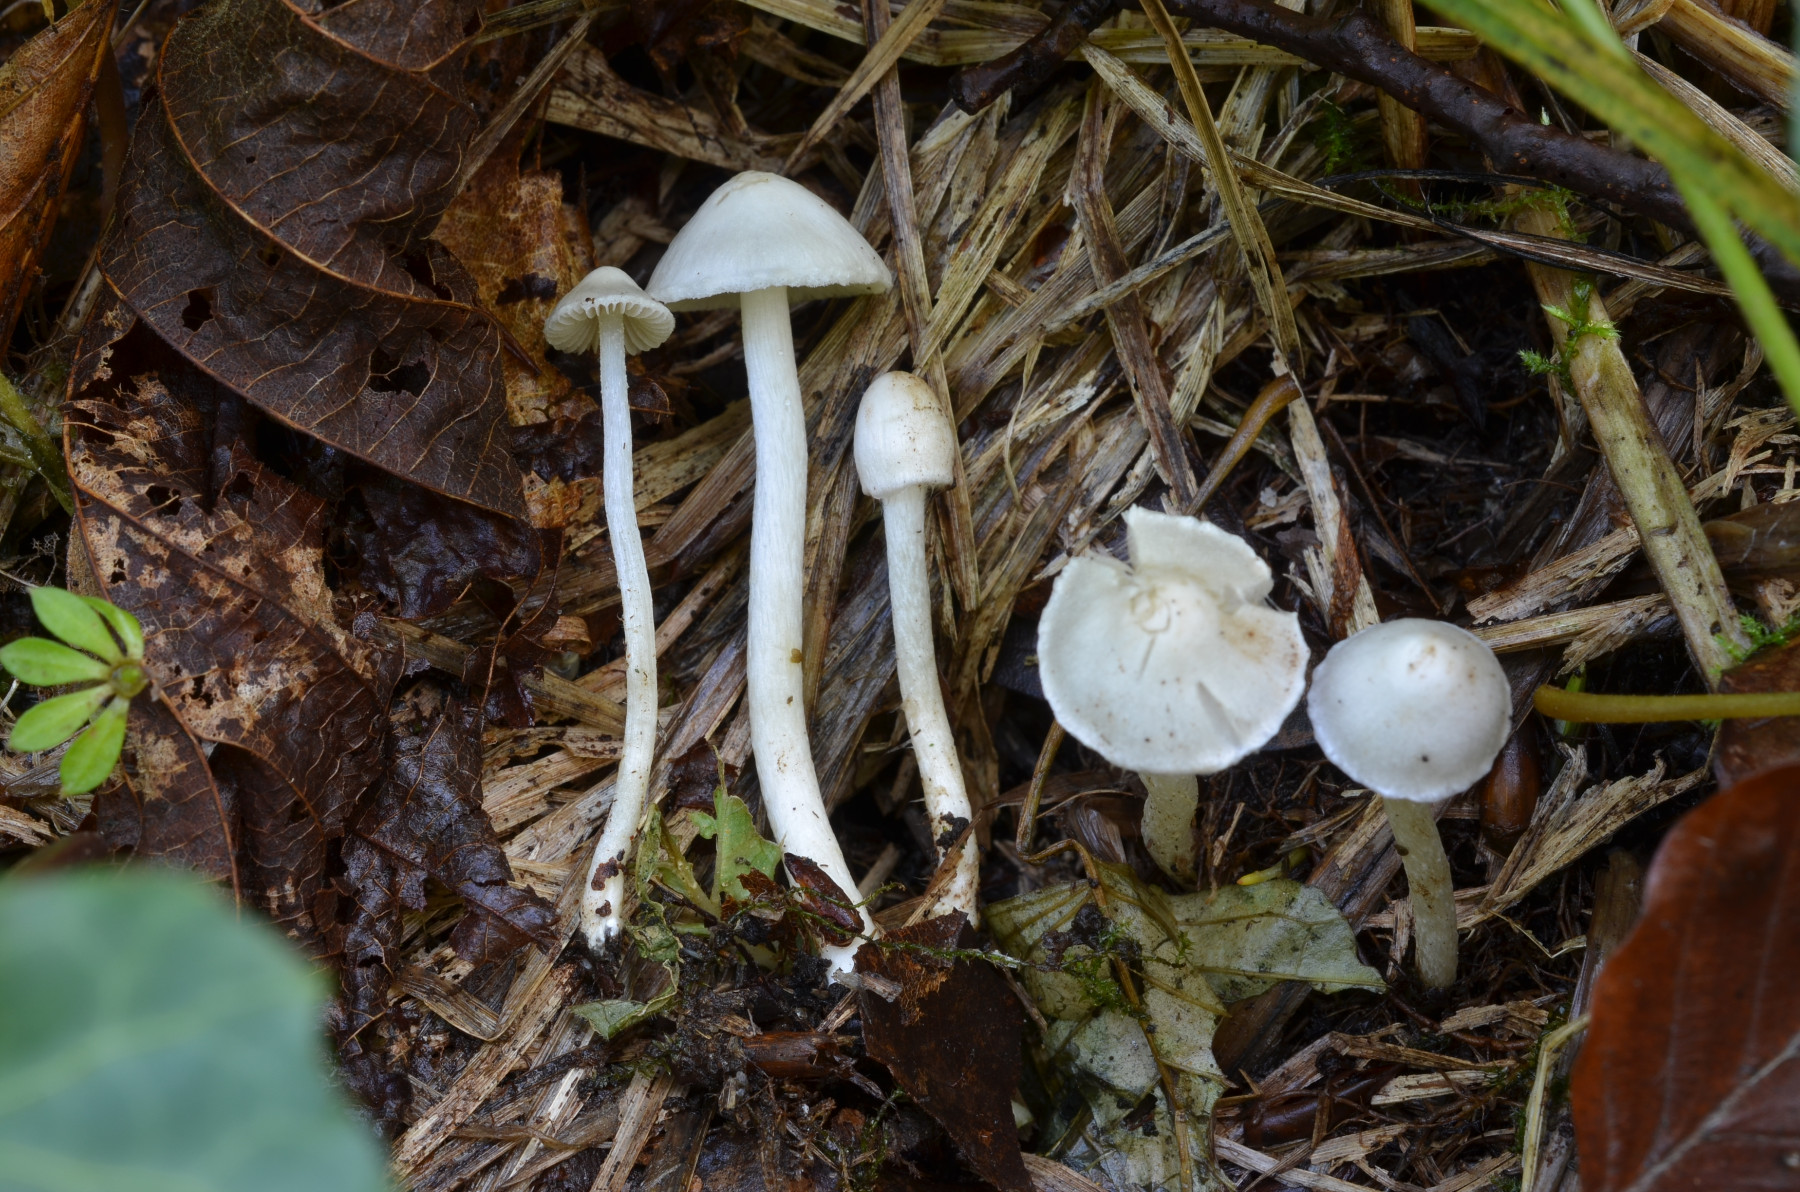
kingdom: Fungi
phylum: Basidiomycota
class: Agaricomycetes
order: Agaricales
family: Inocybaceae
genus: Inocybe
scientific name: Inocybe
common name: almindelig trævlhat
